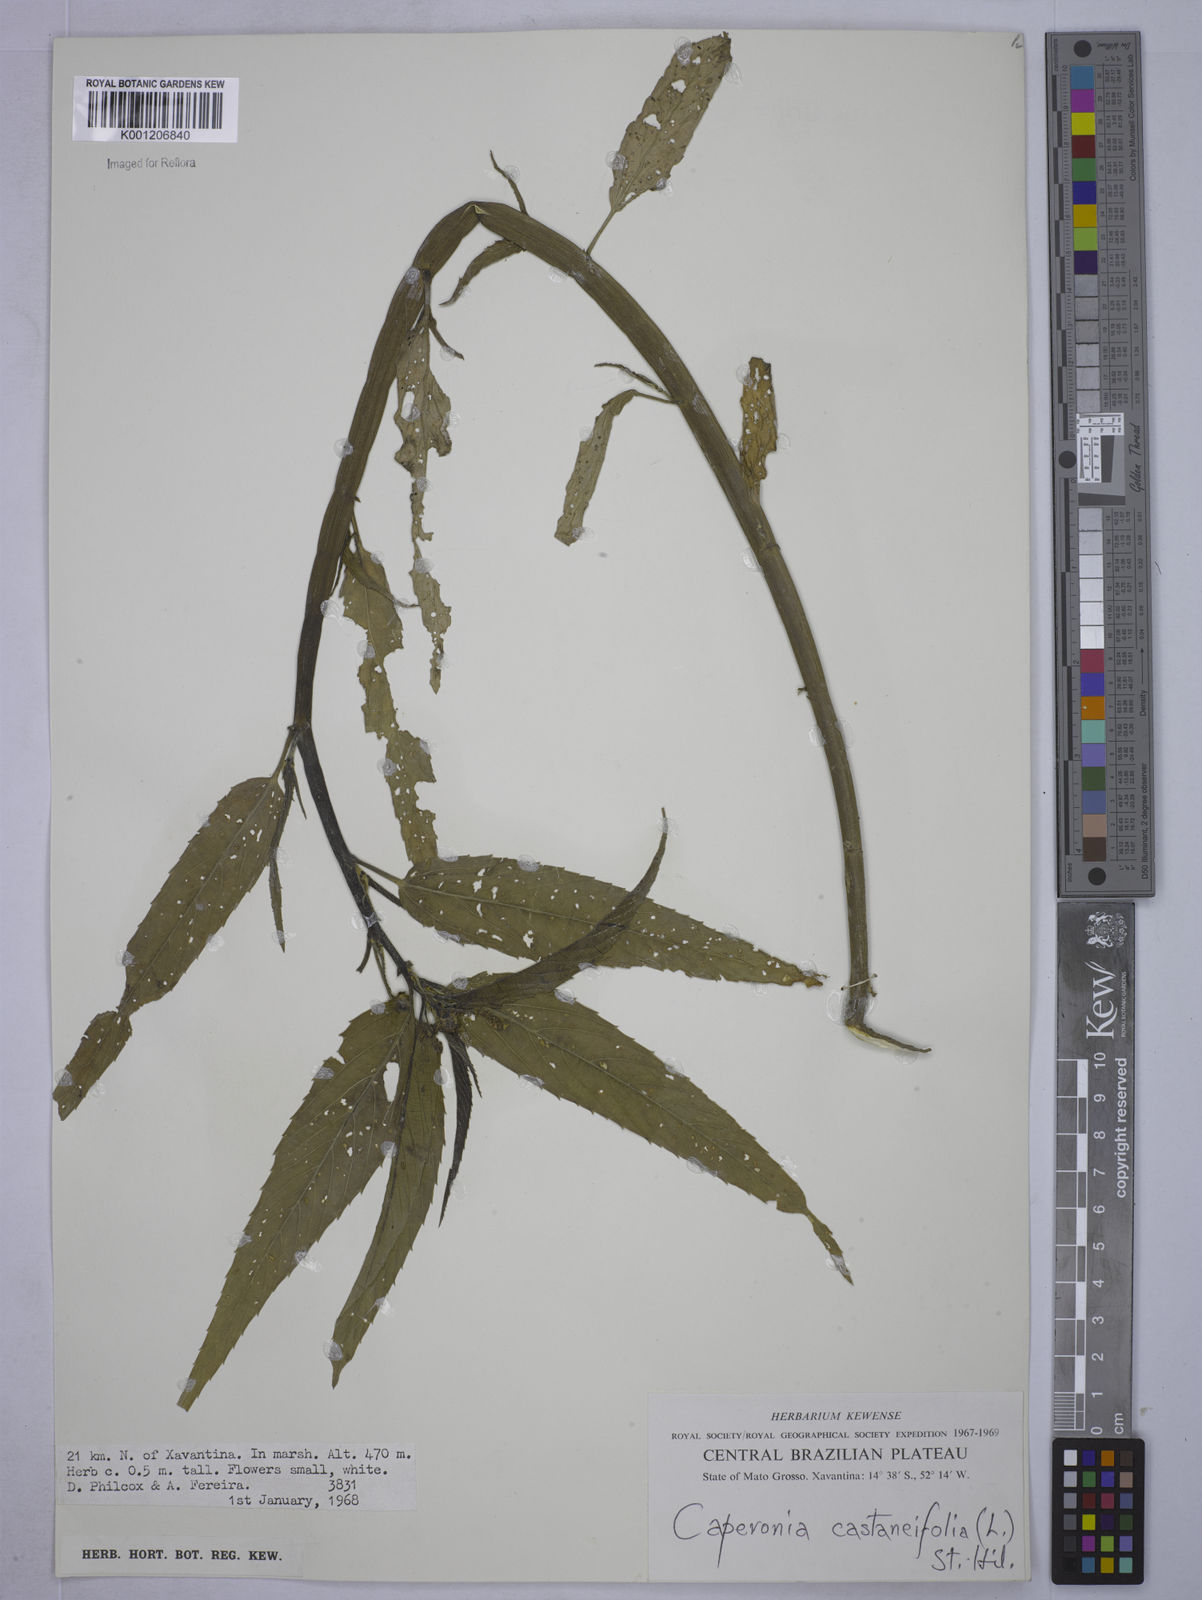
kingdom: Plantae
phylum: Tracheophyta
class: Magnoliopsida
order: Malpighiales
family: Euphorbiaceae
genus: Caperonia
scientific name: Caperonia castaneifolia
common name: Chestnutleaf false croton
